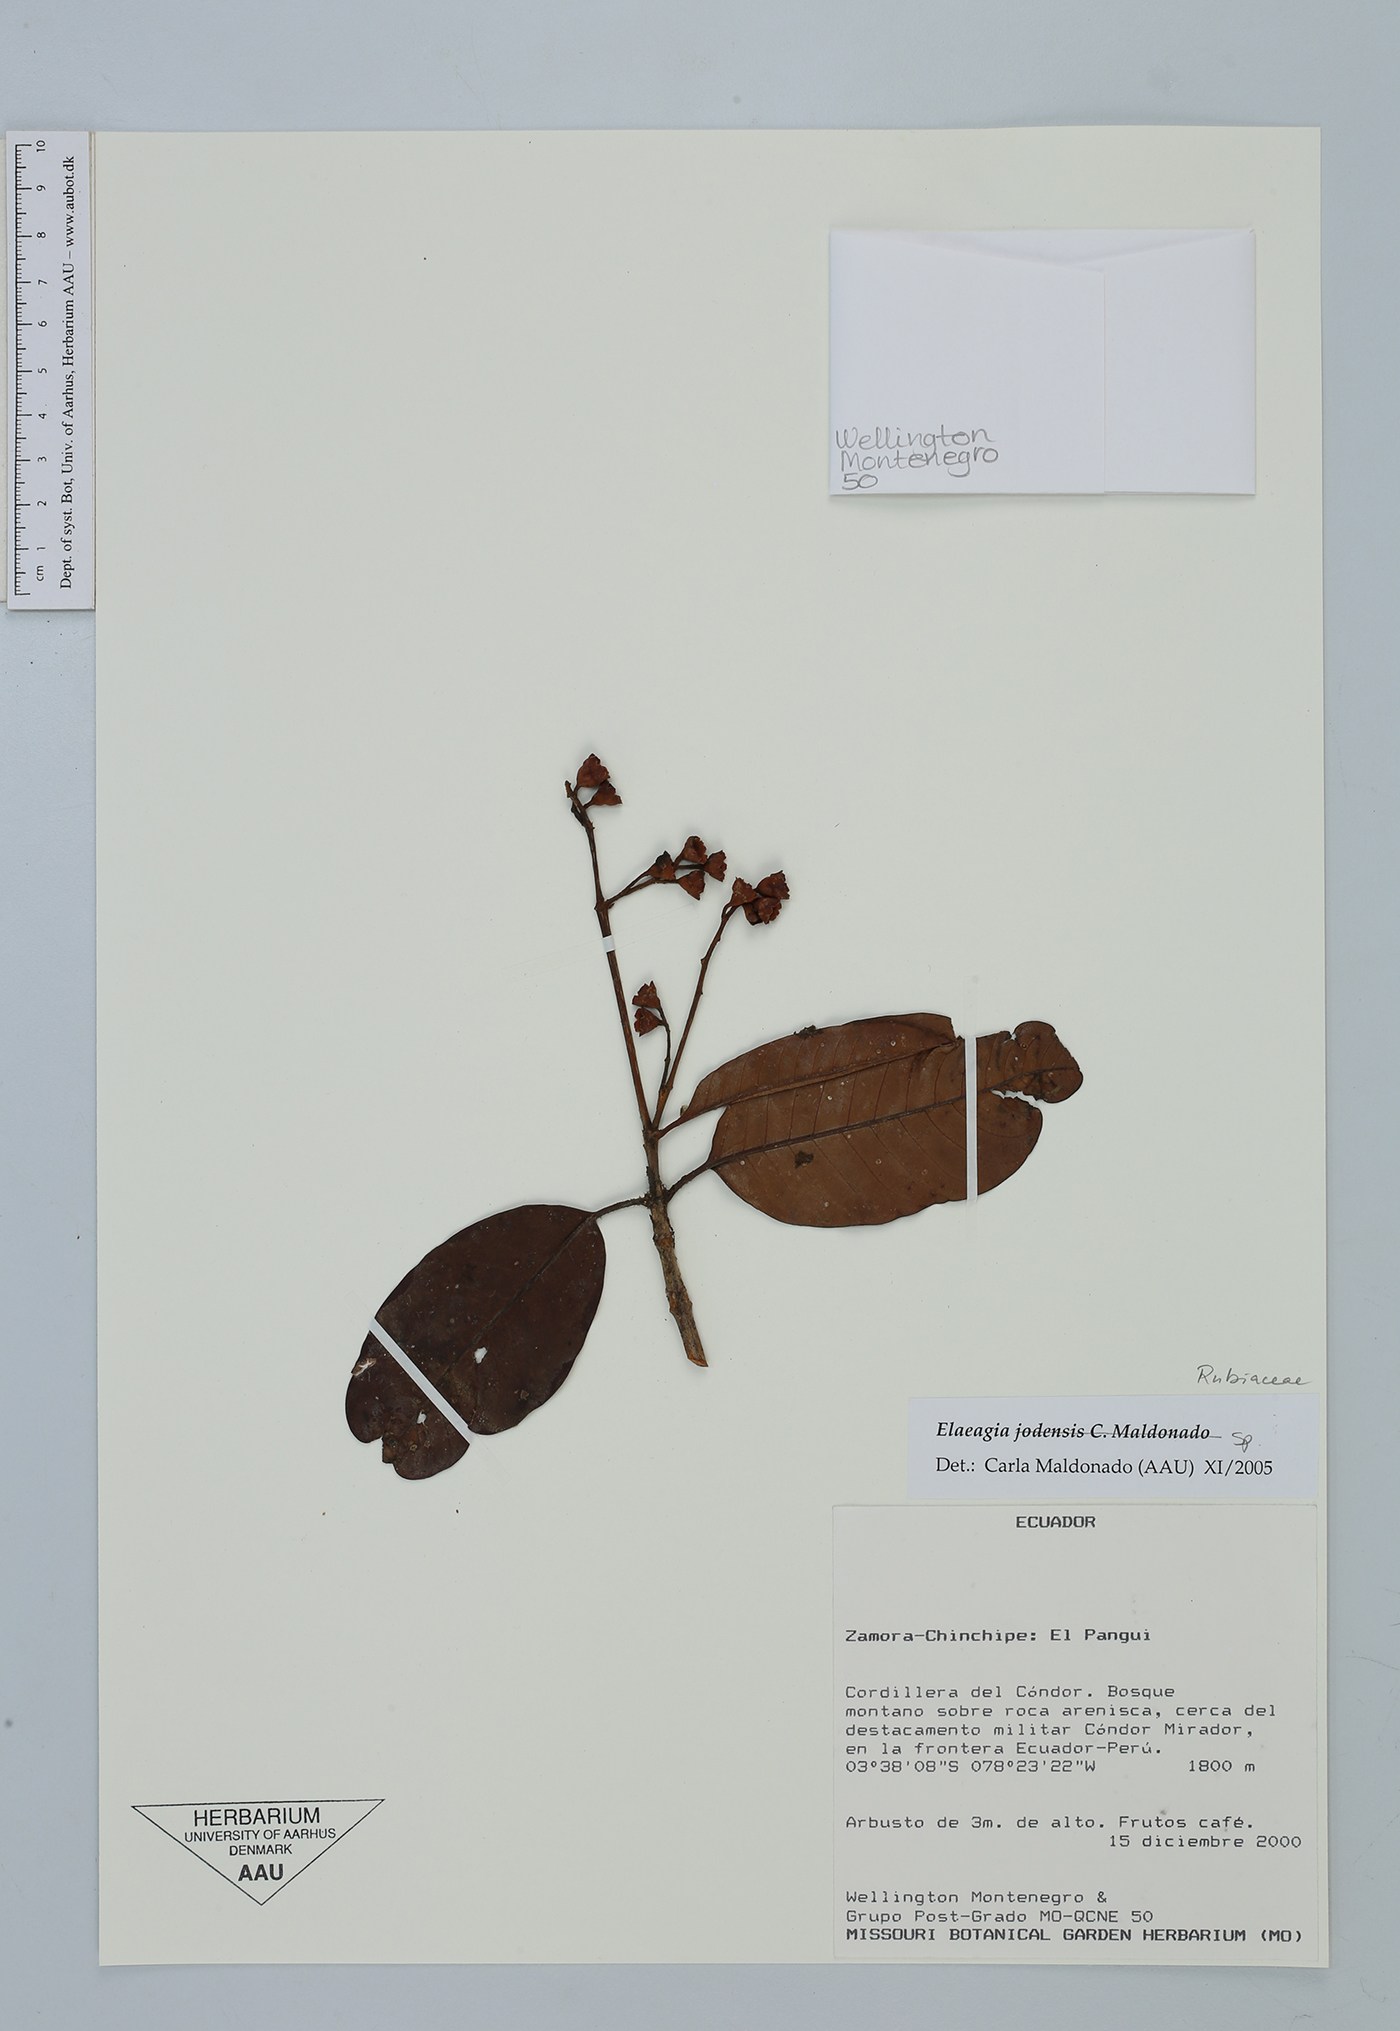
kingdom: Plantae
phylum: Tracheophyta
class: Magnoliopsida
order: Gentianales
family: Rubiaceae
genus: Elaeagia
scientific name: Elaeagia
